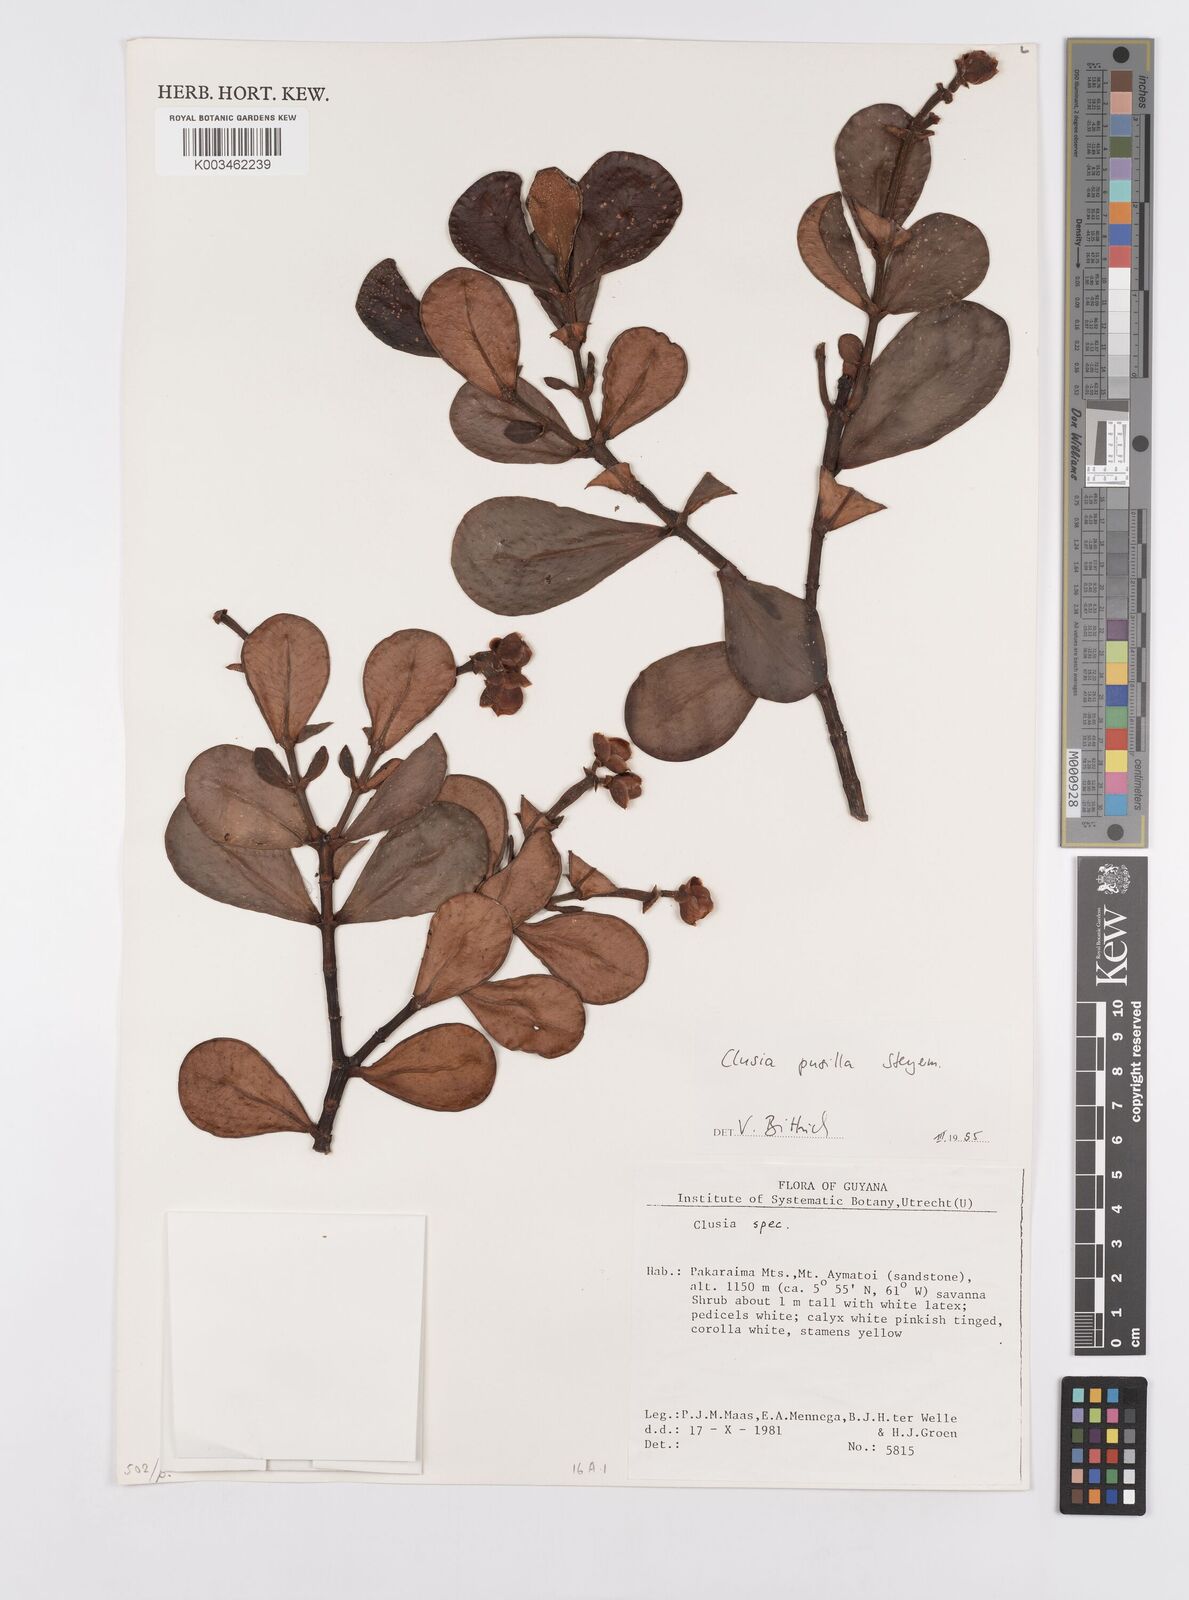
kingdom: Plantae
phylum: Tracheophyta
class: Magnoliopsida
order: Malpighiales
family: Clusiaceae
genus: Clusia
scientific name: Clusia pusilla
